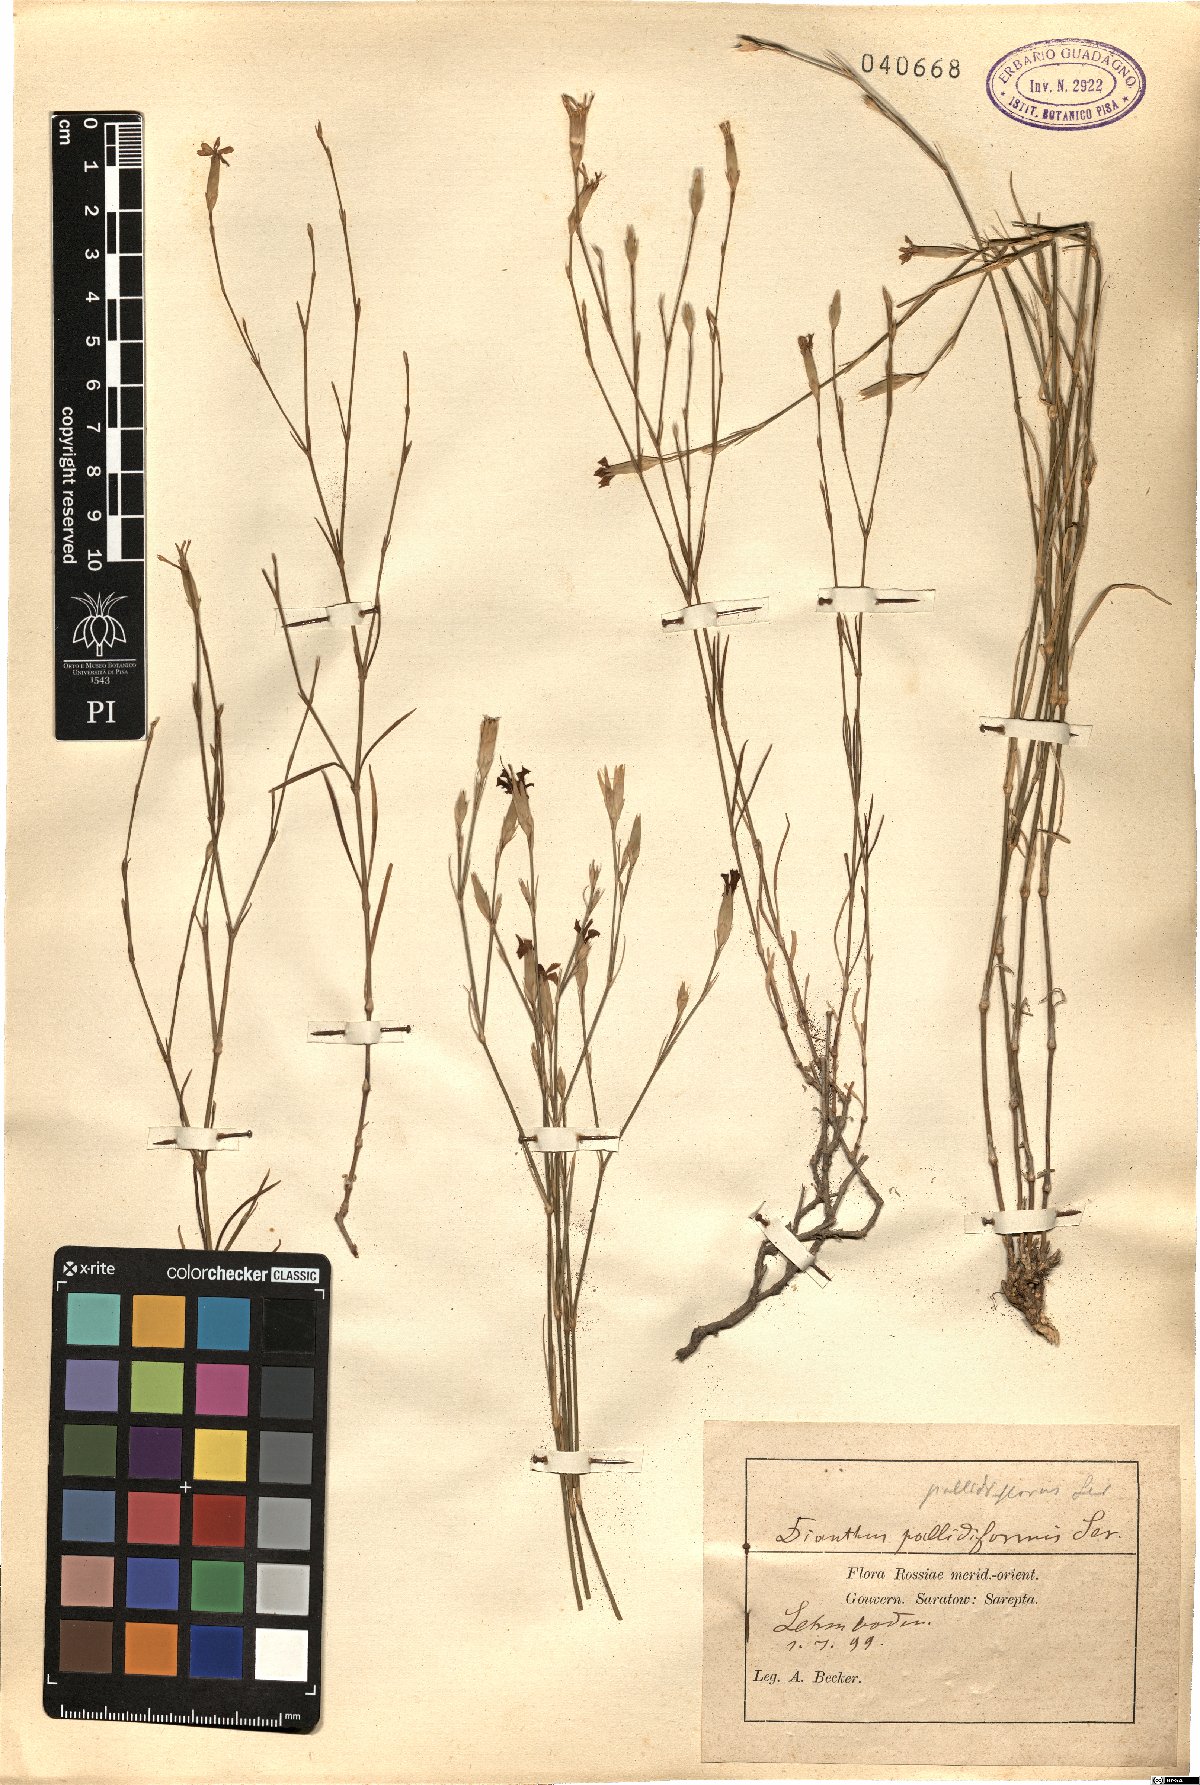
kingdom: Plantae
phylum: Tracheophyta
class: Magnoliopsida
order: Caryophyllales
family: Caryophyllaceae
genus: Dianthus
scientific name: Dianthus pallens
